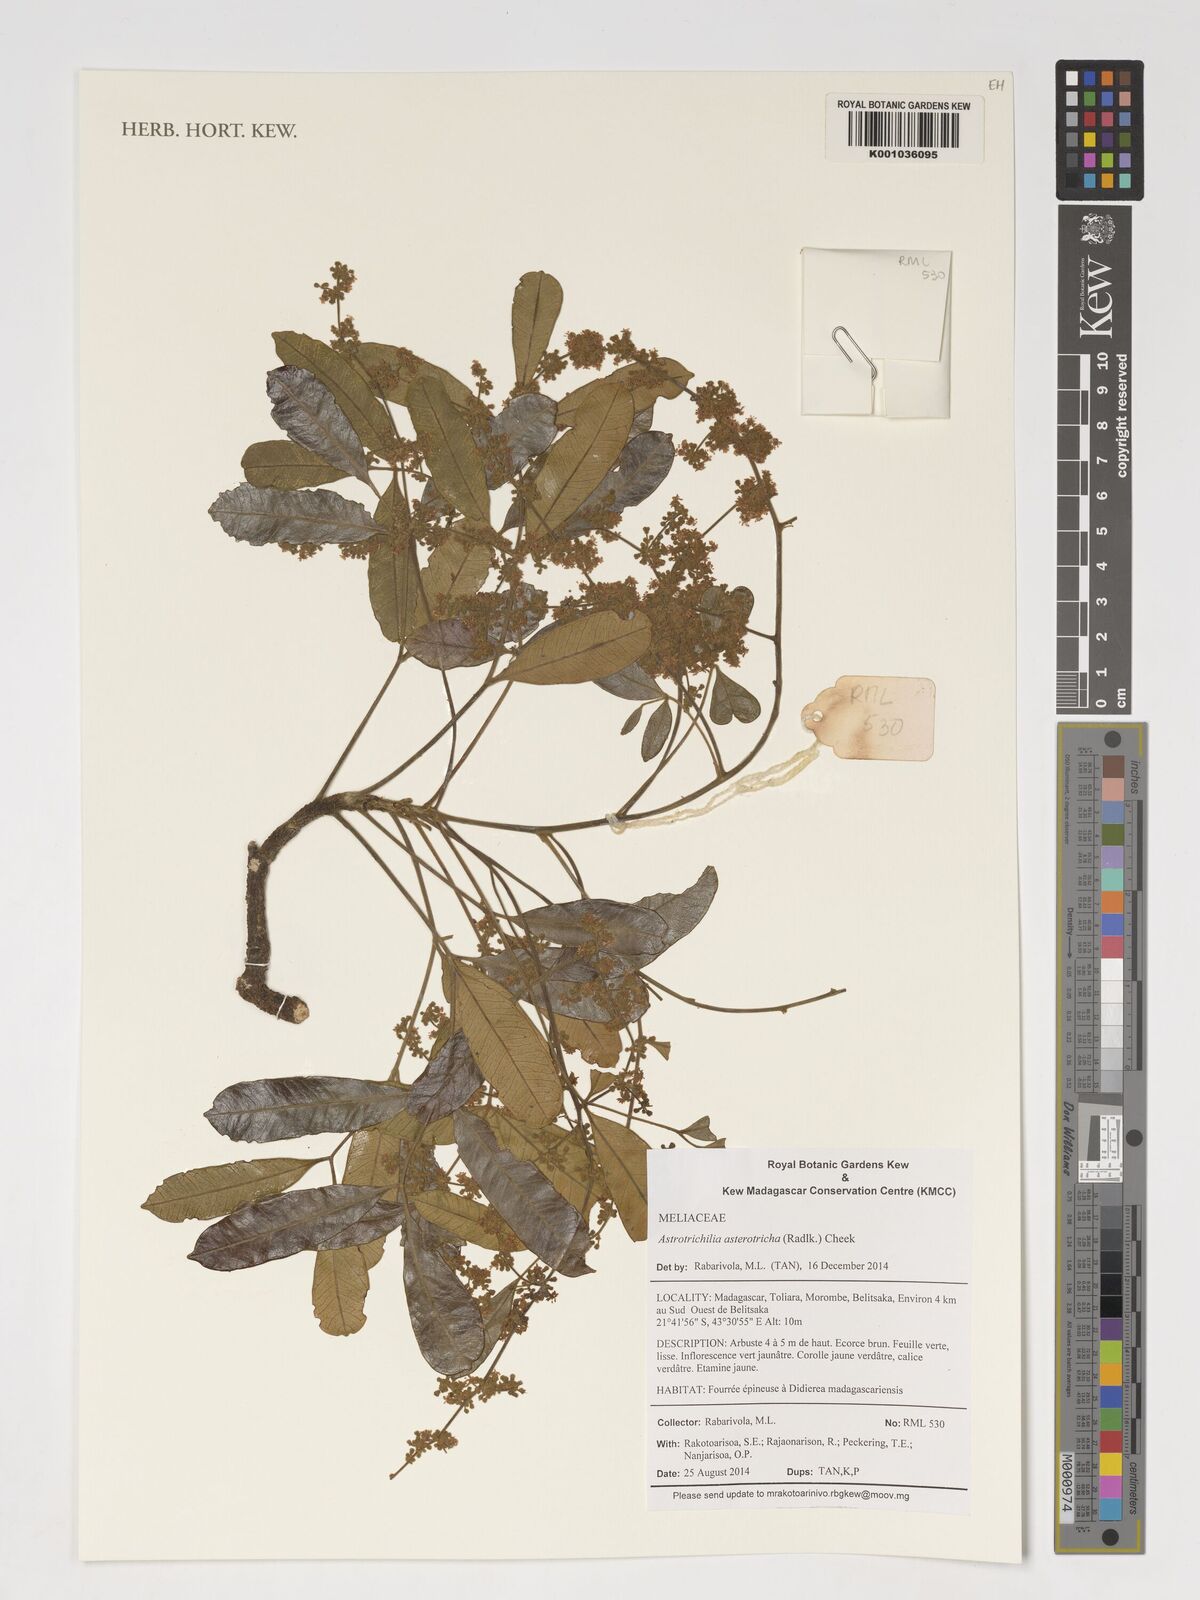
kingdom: Plantae
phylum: Tracheophyta
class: Magnoliopsida
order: Sapindales
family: Meliaceae
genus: Astrotrichilia
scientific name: Astrotrichilia asterotricha
